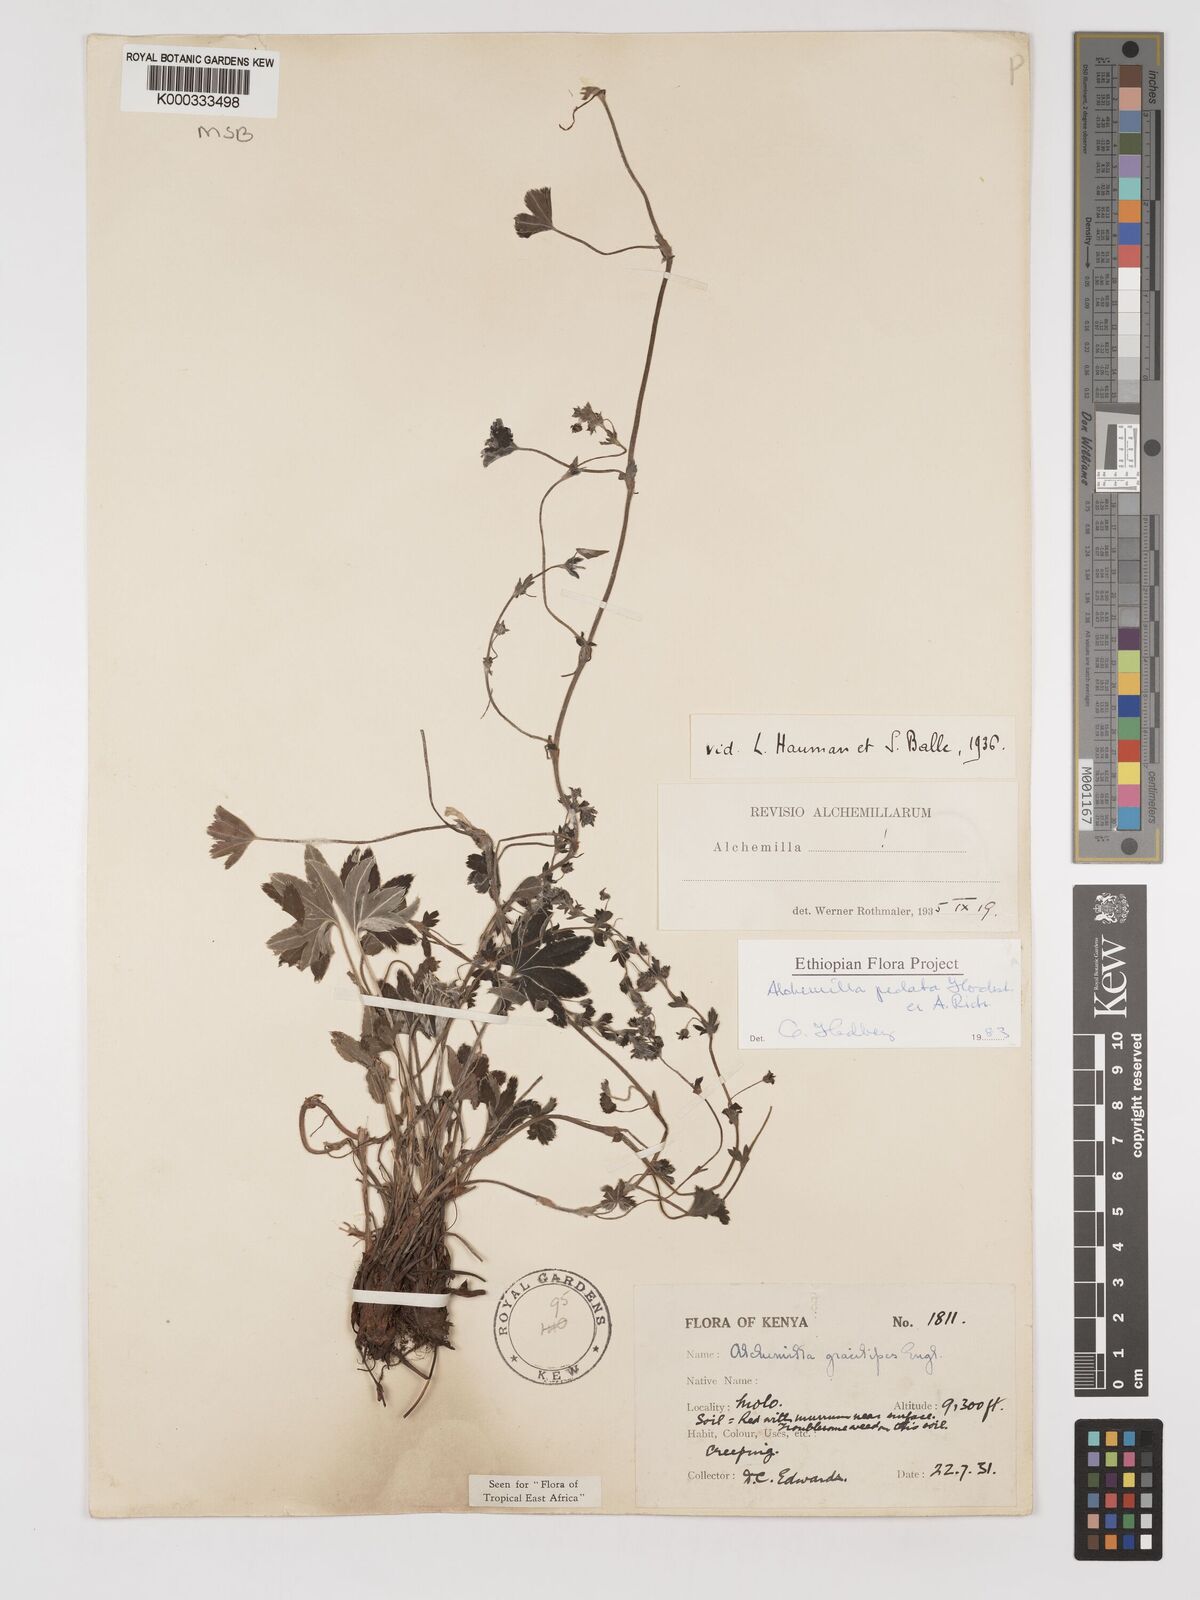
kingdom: Plantae
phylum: Tracheophyta
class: Magnoliopsida
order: Rosales
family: Rosaceae
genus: Alchemilla
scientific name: Alchemilla pedata
